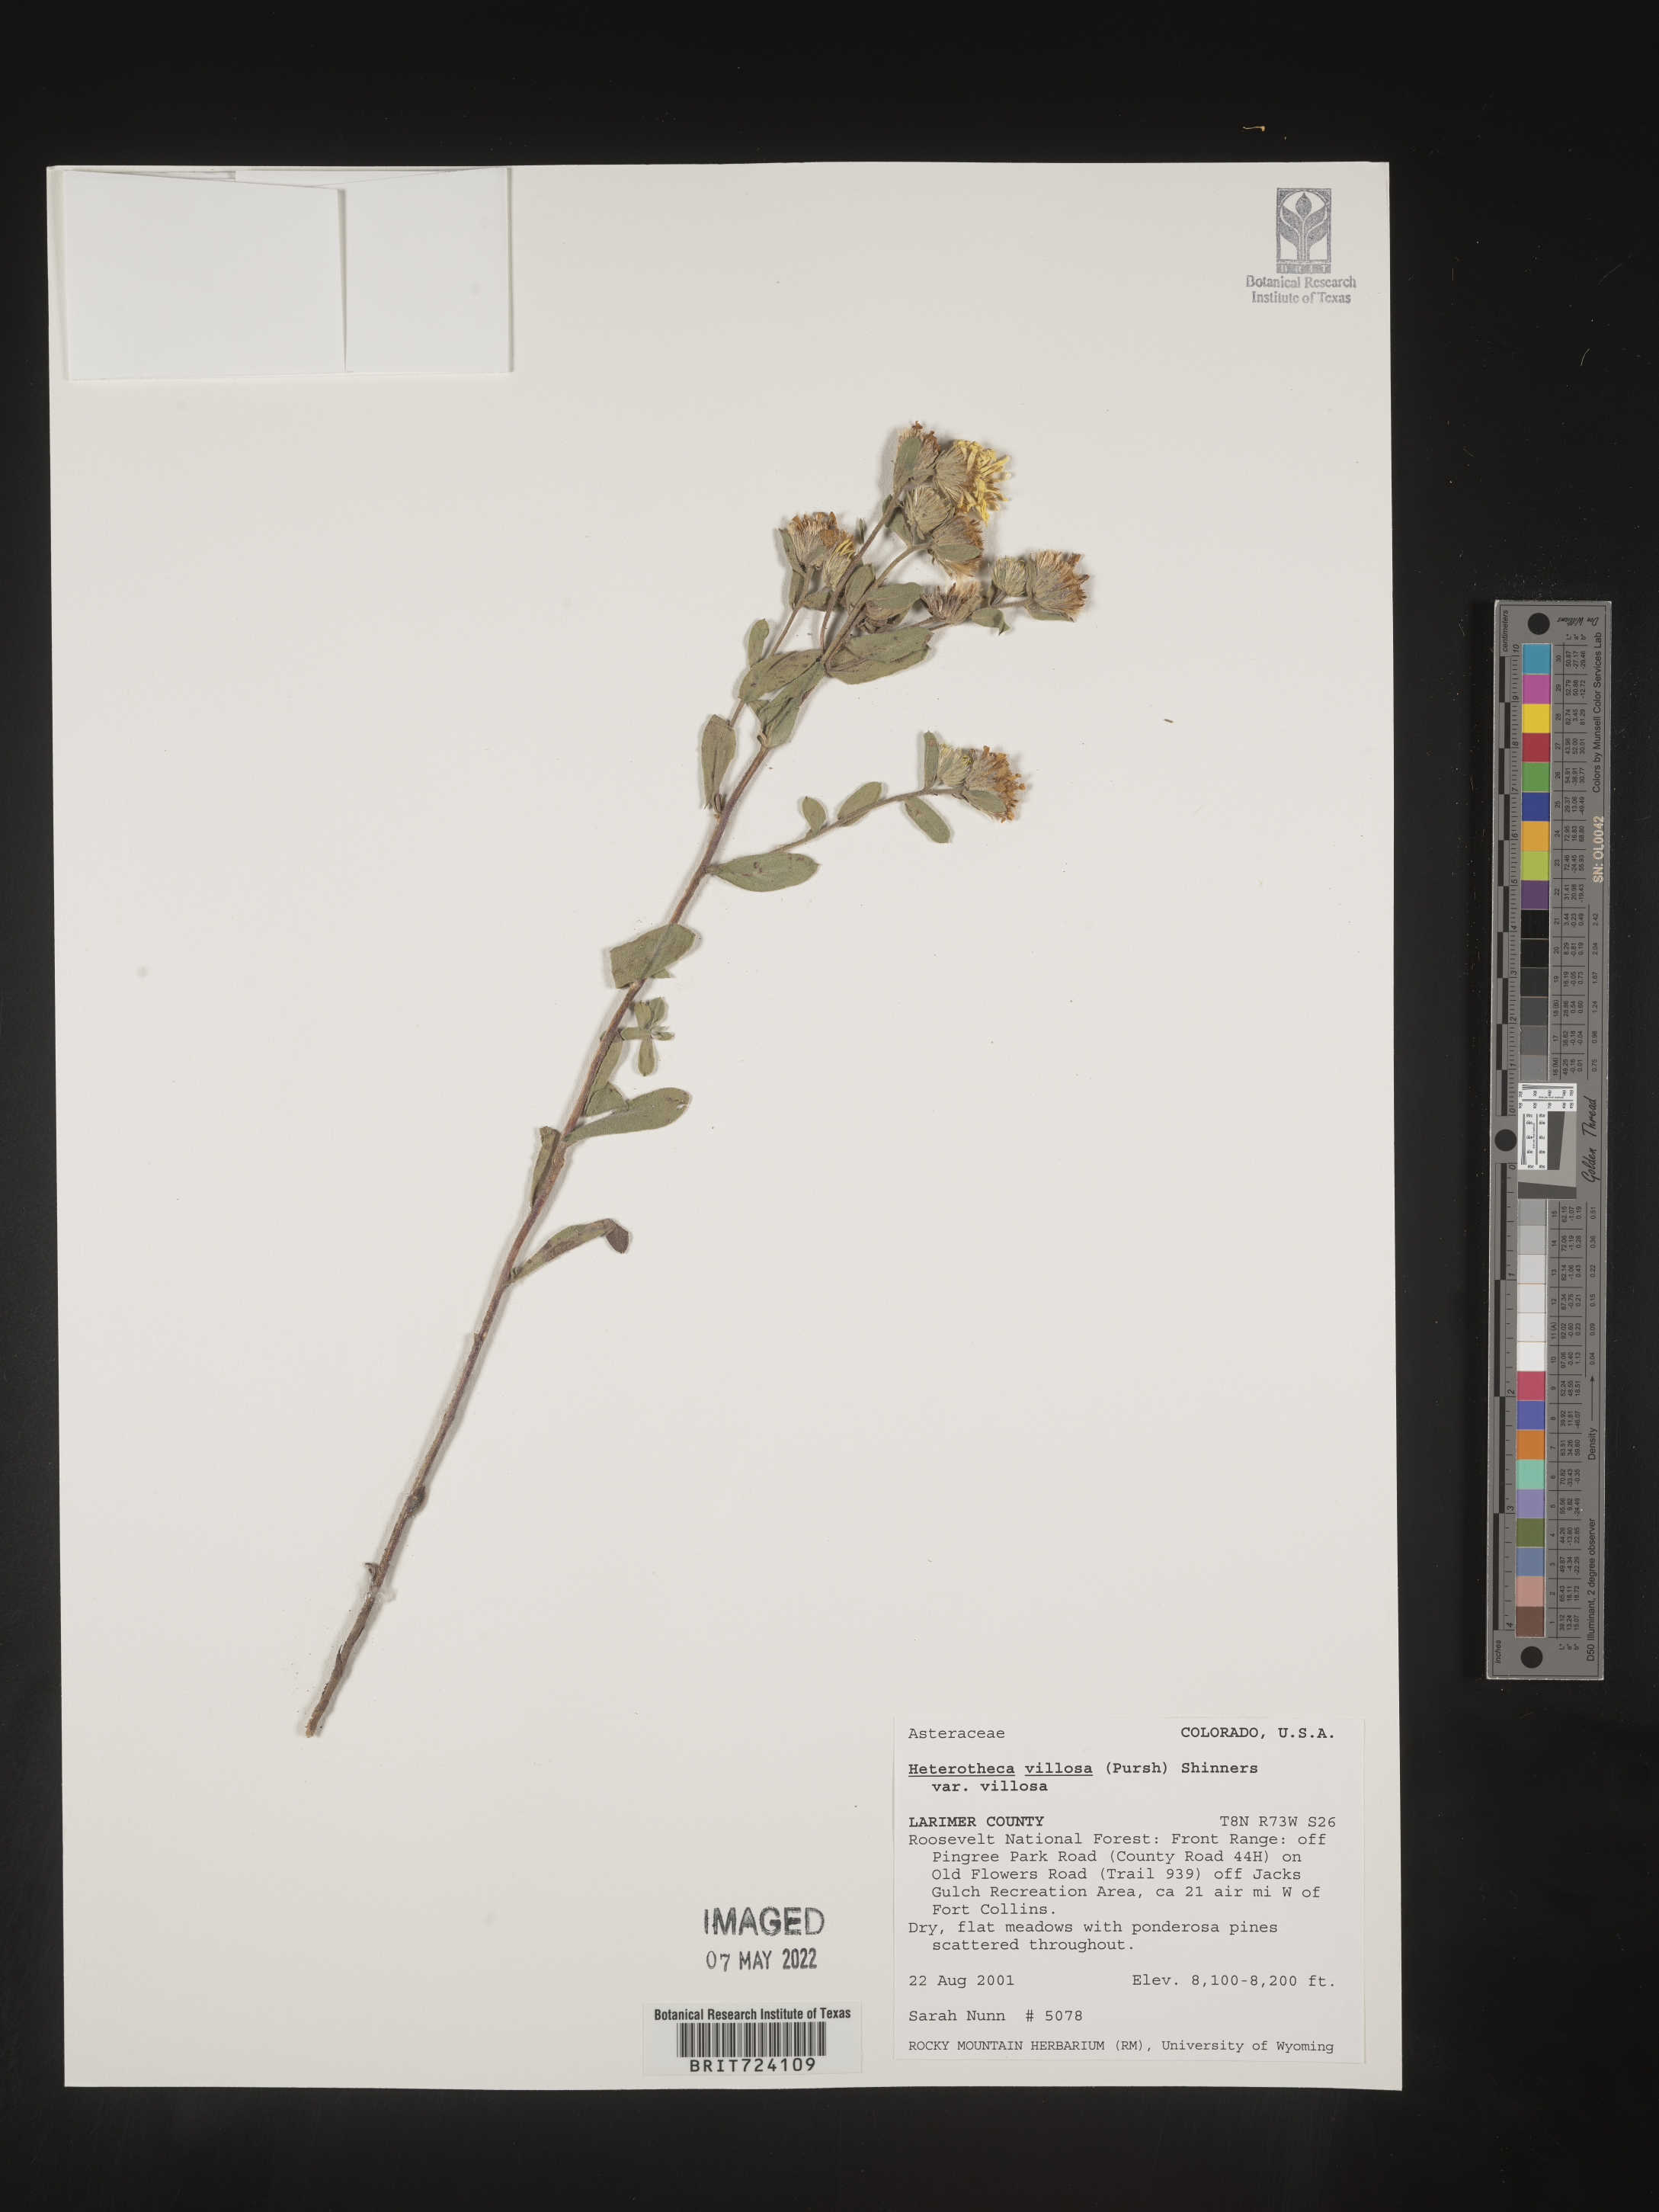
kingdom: Plantae
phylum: Tracheophyta
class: Magnoliopsida
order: Asterales
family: Asteraceae
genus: Heterotheca
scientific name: Heterotheca villosa
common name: Hairy false goldenaster
